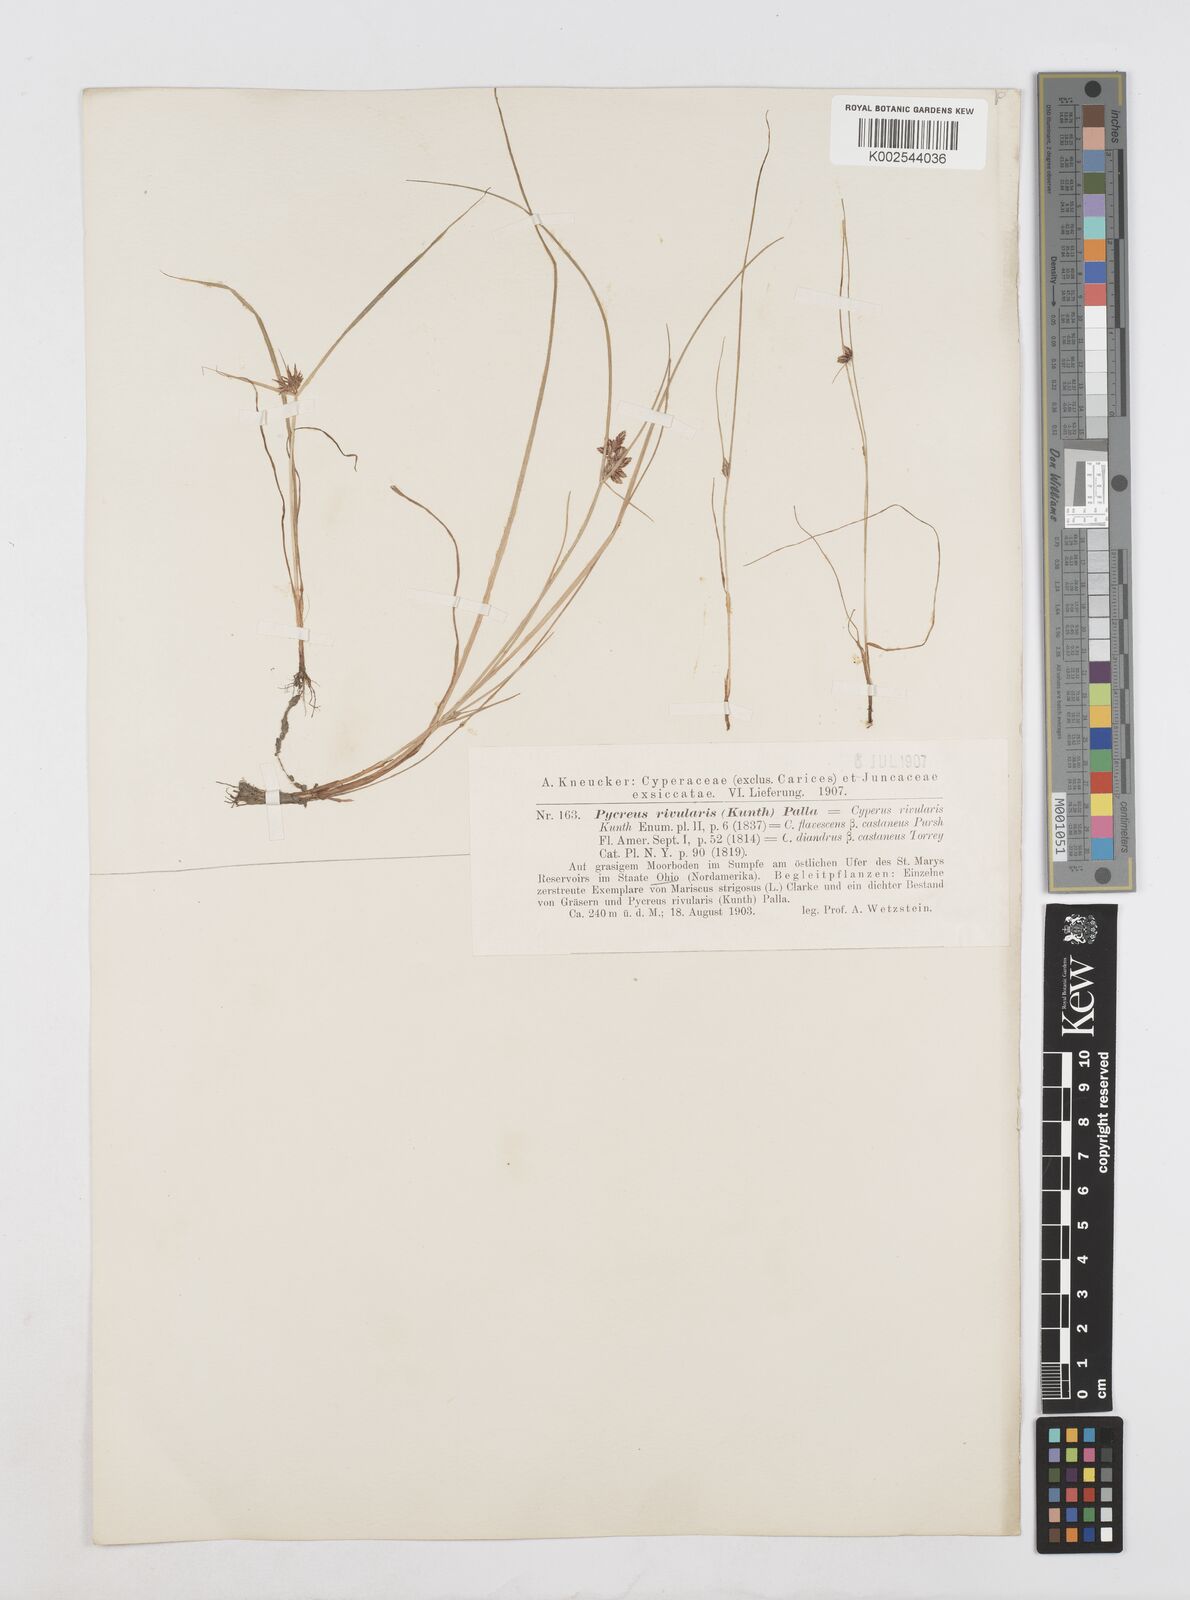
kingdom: Plantae
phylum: Tracheophyta
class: Liliopsida
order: Poales
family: Cyperaceae
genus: Cyperus
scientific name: Cyperus bipartitus
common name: Brook flatsedge
